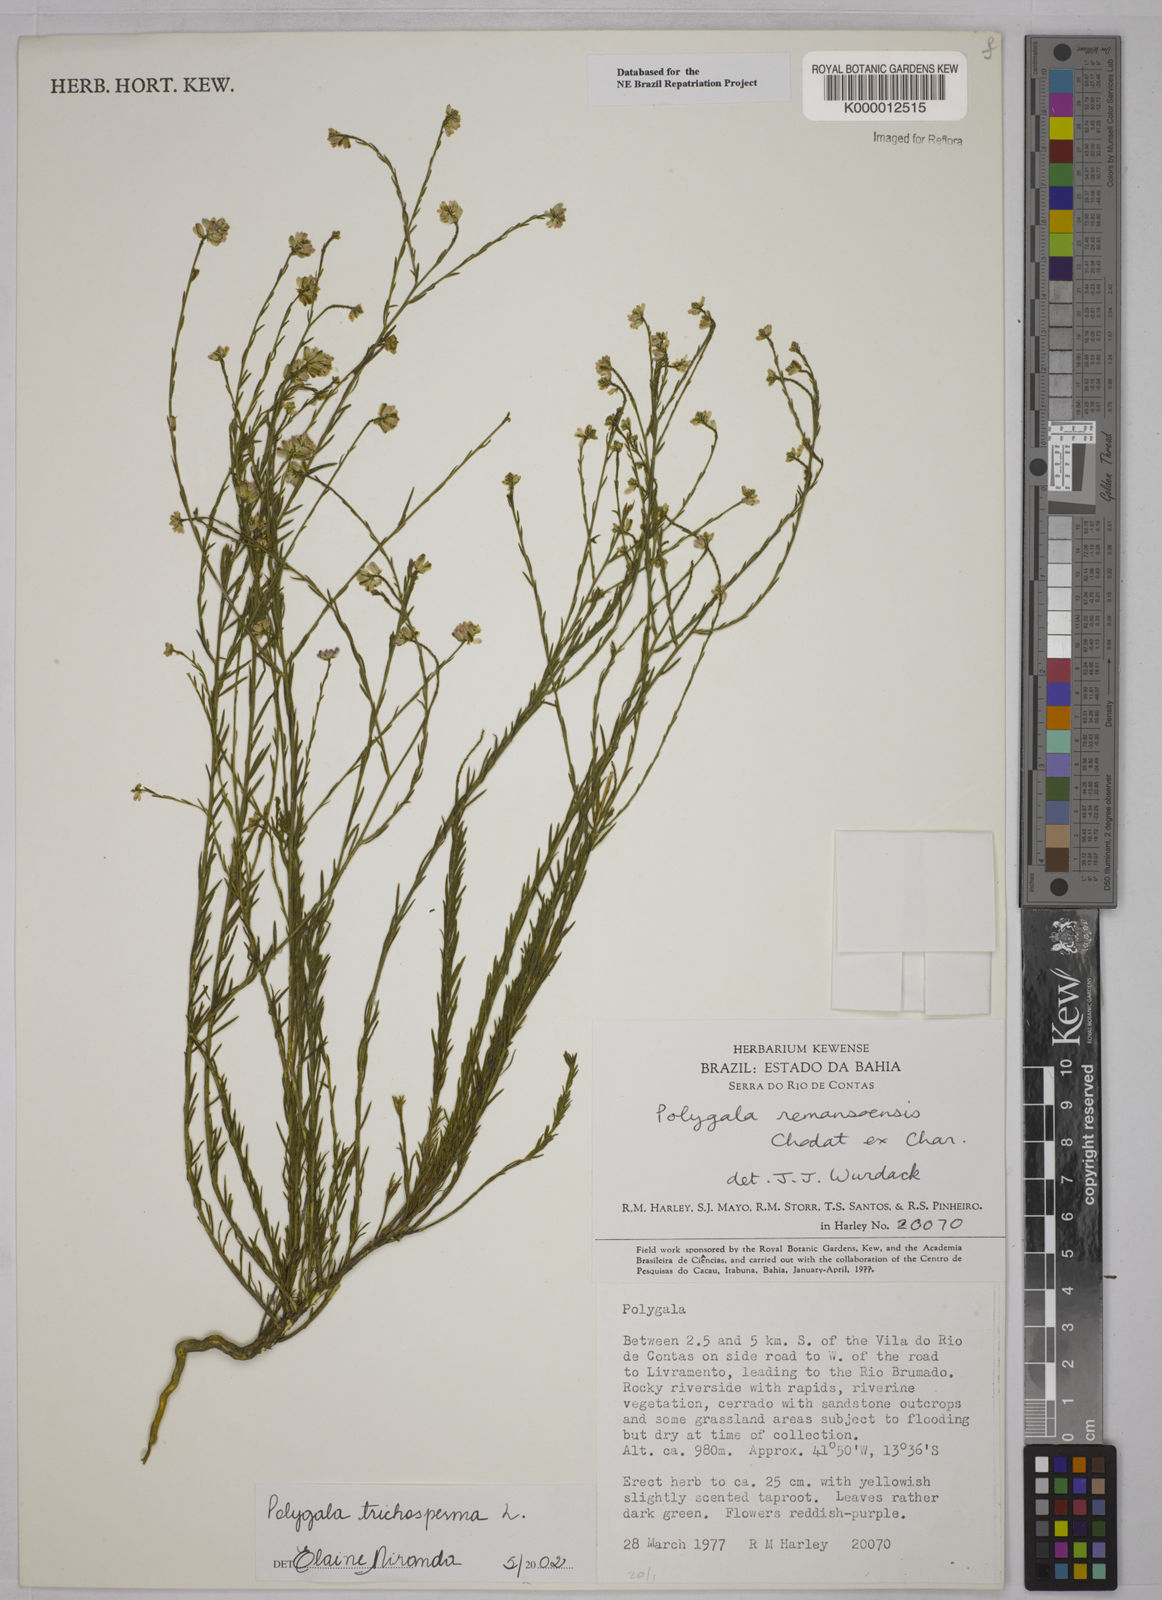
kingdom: Plantae
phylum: Tracheophyta
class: Magnoliopsida
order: Fabales
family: Polygalaceae
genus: Polygala
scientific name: Polygala
